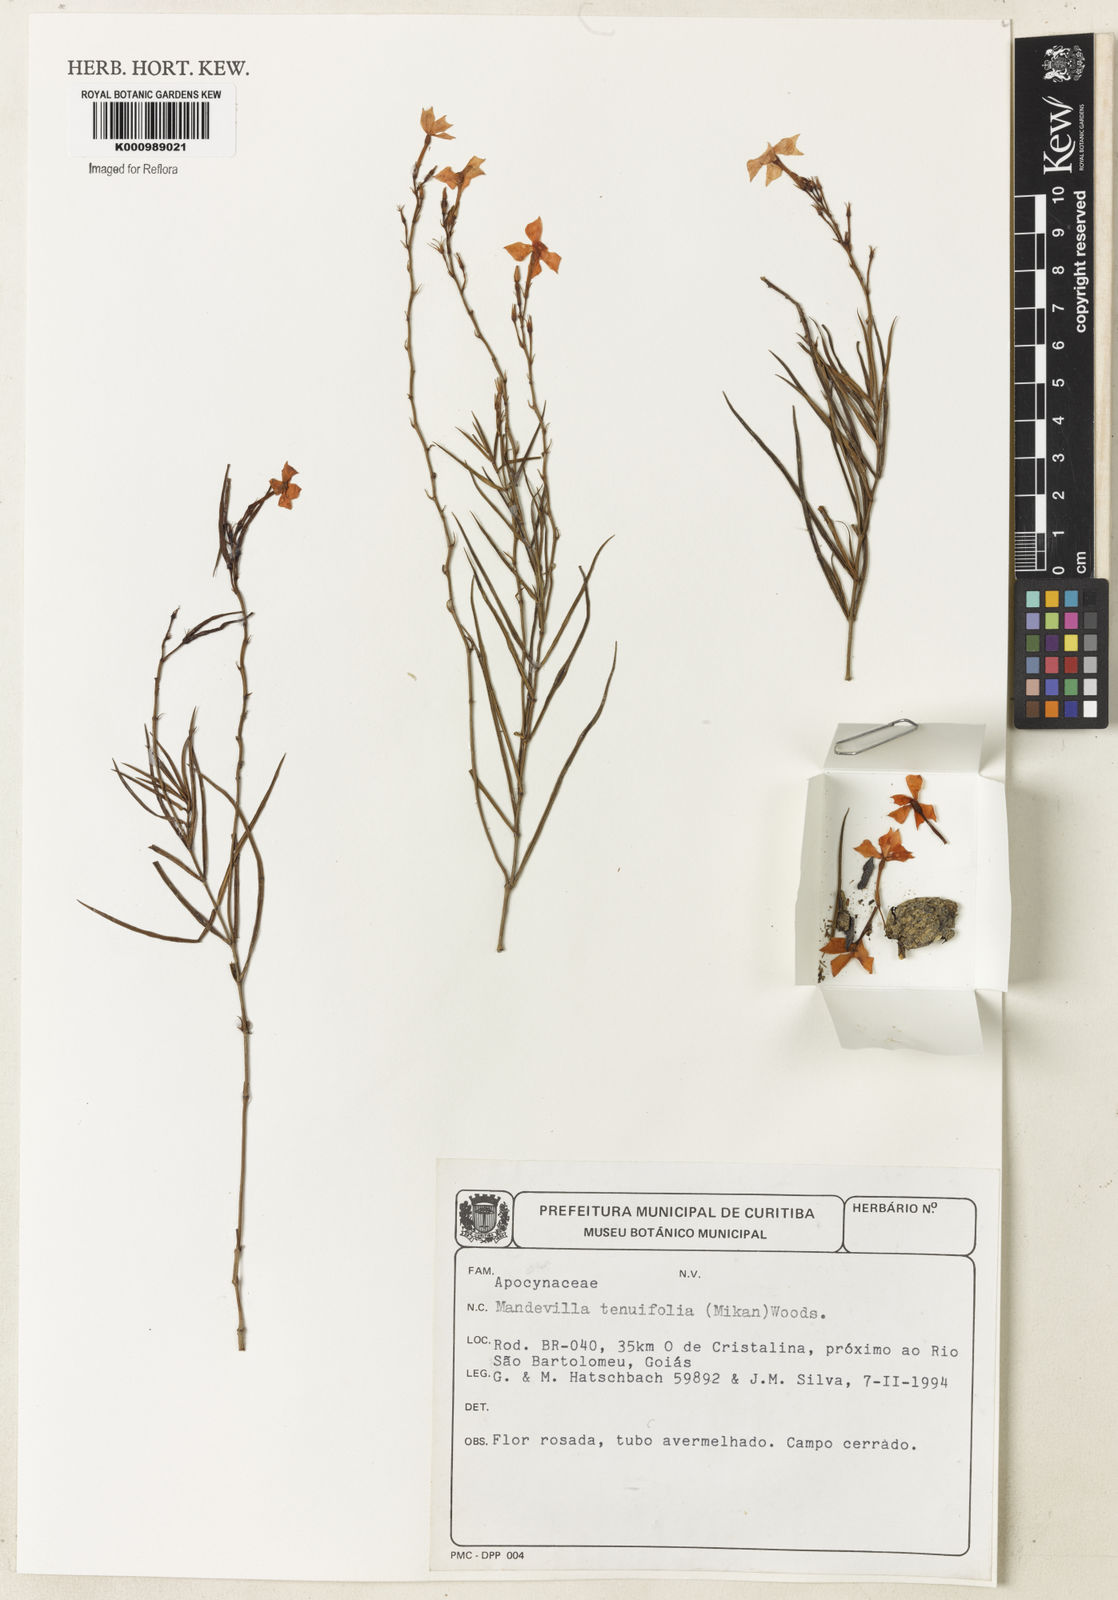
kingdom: Plantae
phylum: Tracheophyta
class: Magnoliopsida
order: Gentianales
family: Apocynaceae
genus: Mandevilla
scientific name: Mandevilla tenuifolia
